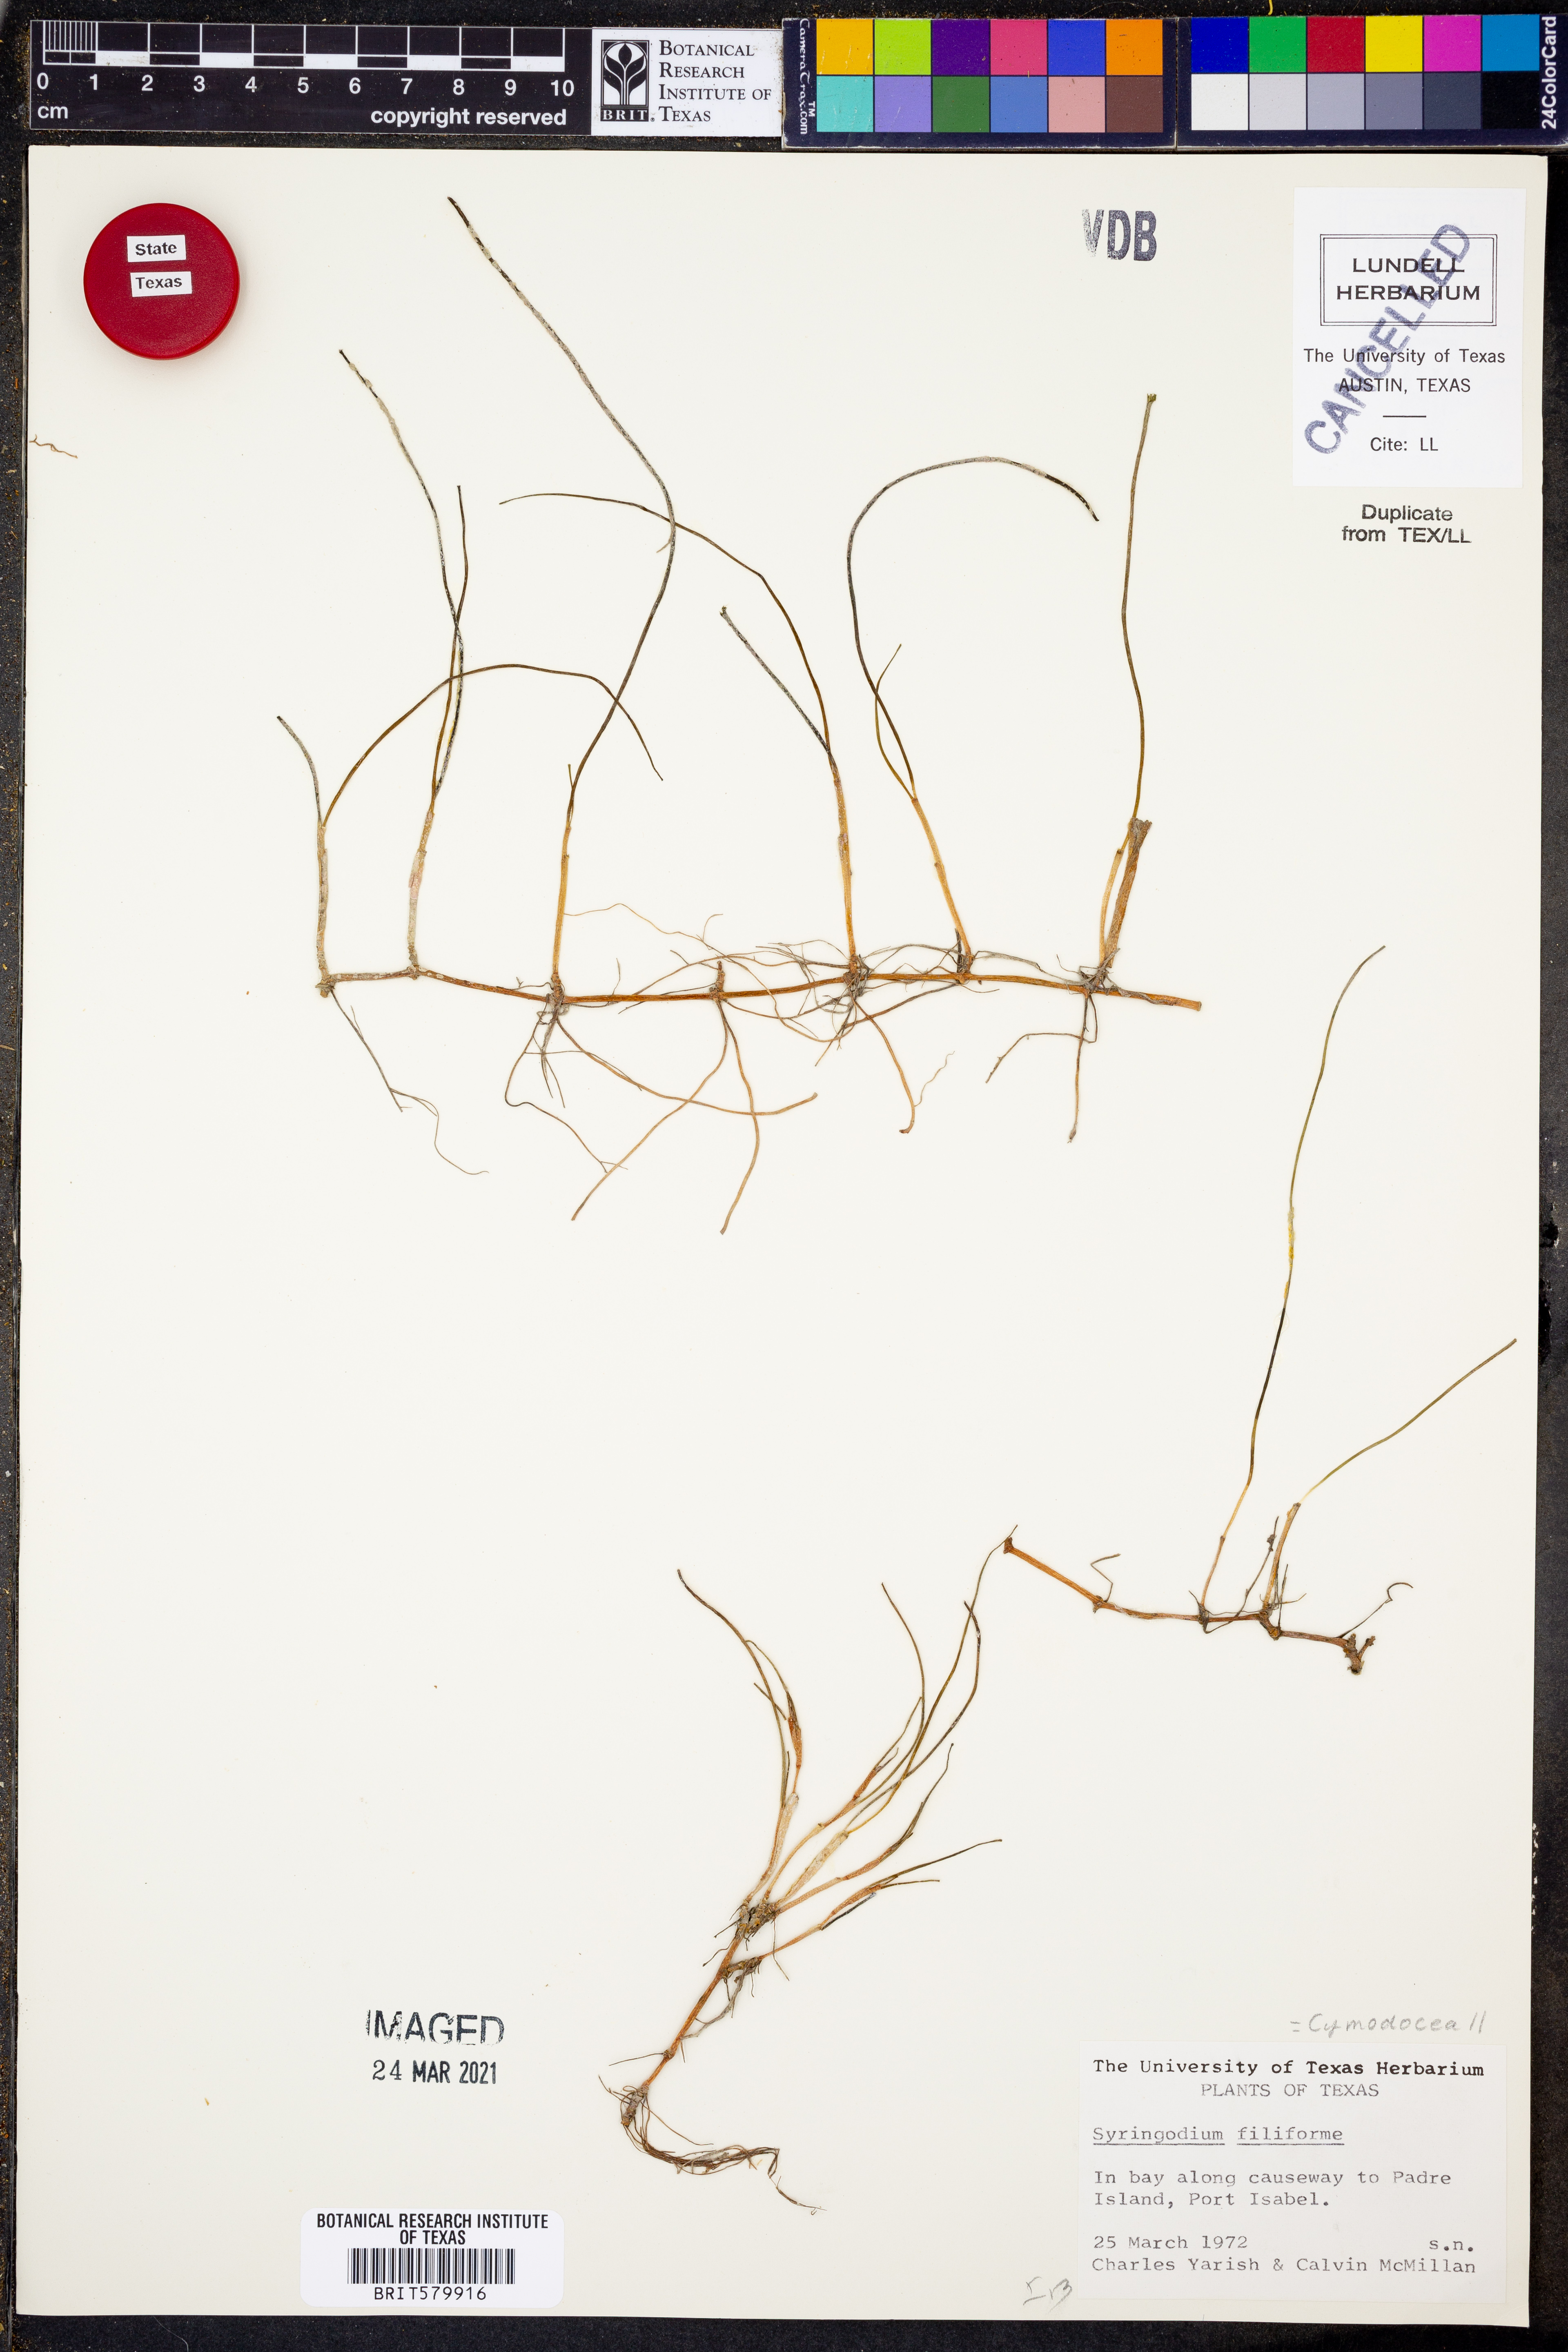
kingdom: Plantae
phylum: Tracheophyta
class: Liliopsida
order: Alismatales
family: Cymodoceaceae
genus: Syringodium
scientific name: Syringodium filiforme
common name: Manatee grass
